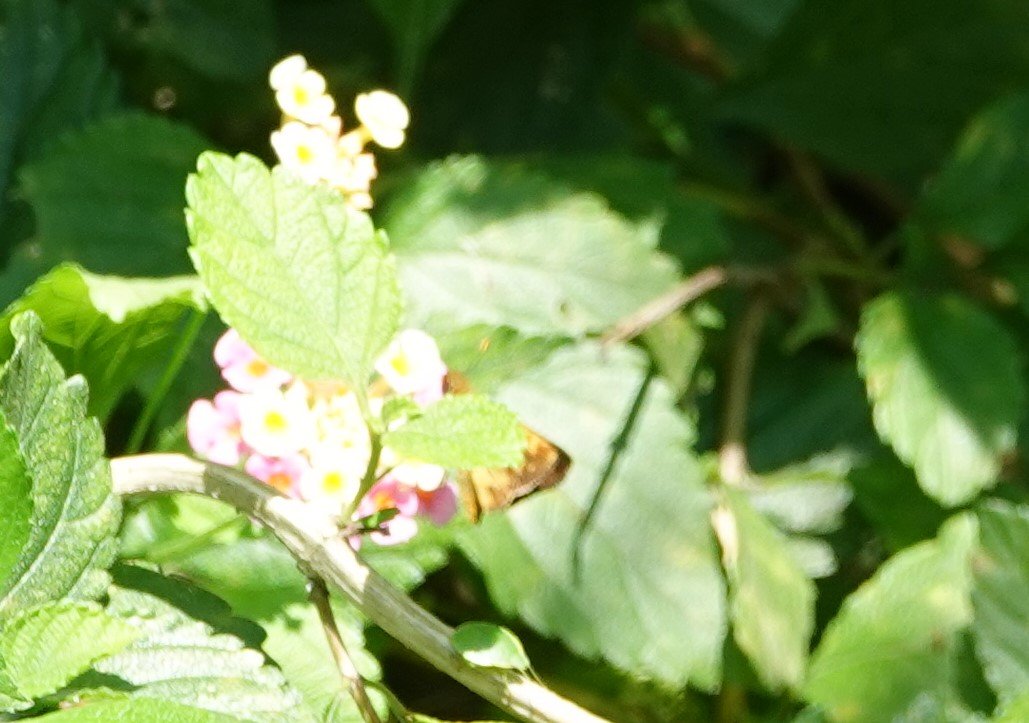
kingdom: Animalia
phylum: Arthropoda
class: Insecta
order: Lepidoptera
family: Hesperiidae
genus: Lon
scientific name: Lon zabulon
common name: Zabulon Skipper
